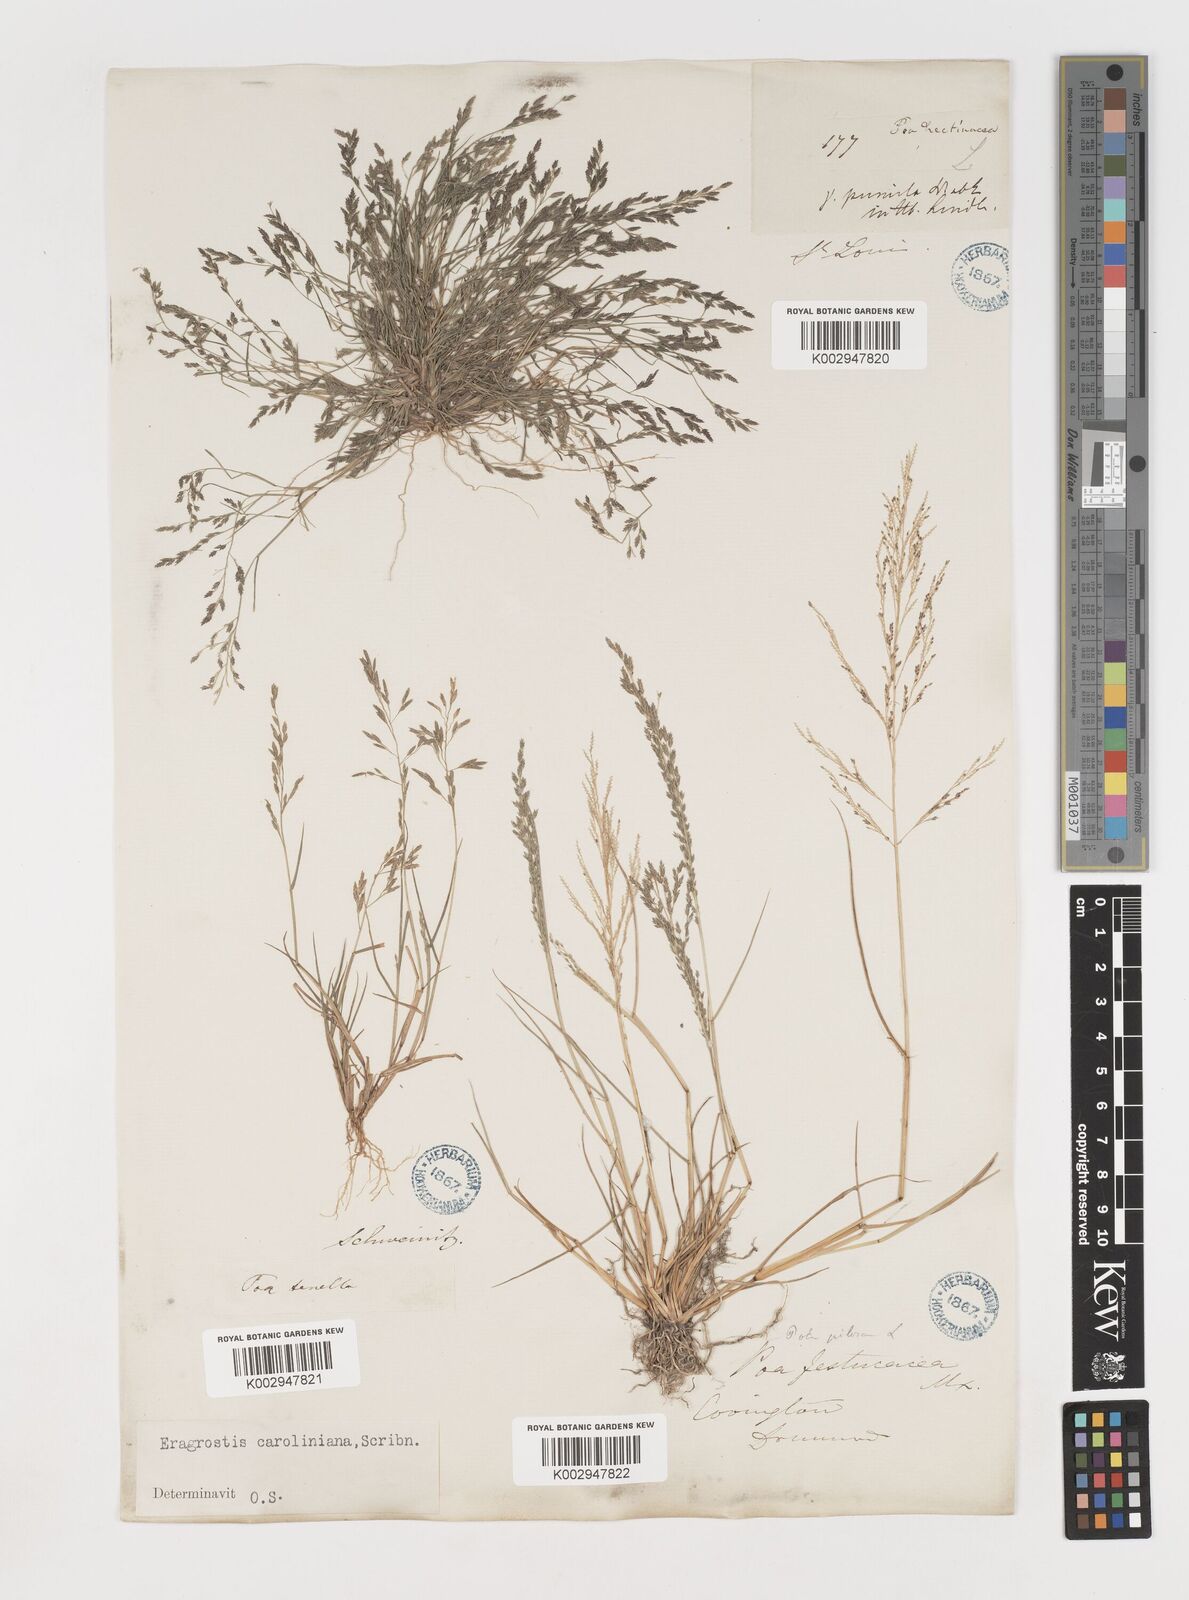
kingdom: Plantae
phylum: Tracheophyta
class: Liliopsida
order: Poales
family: Poaceae
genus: Eragrostis
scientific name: Eragrostis pectinacea
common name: Tufted lovegrass
